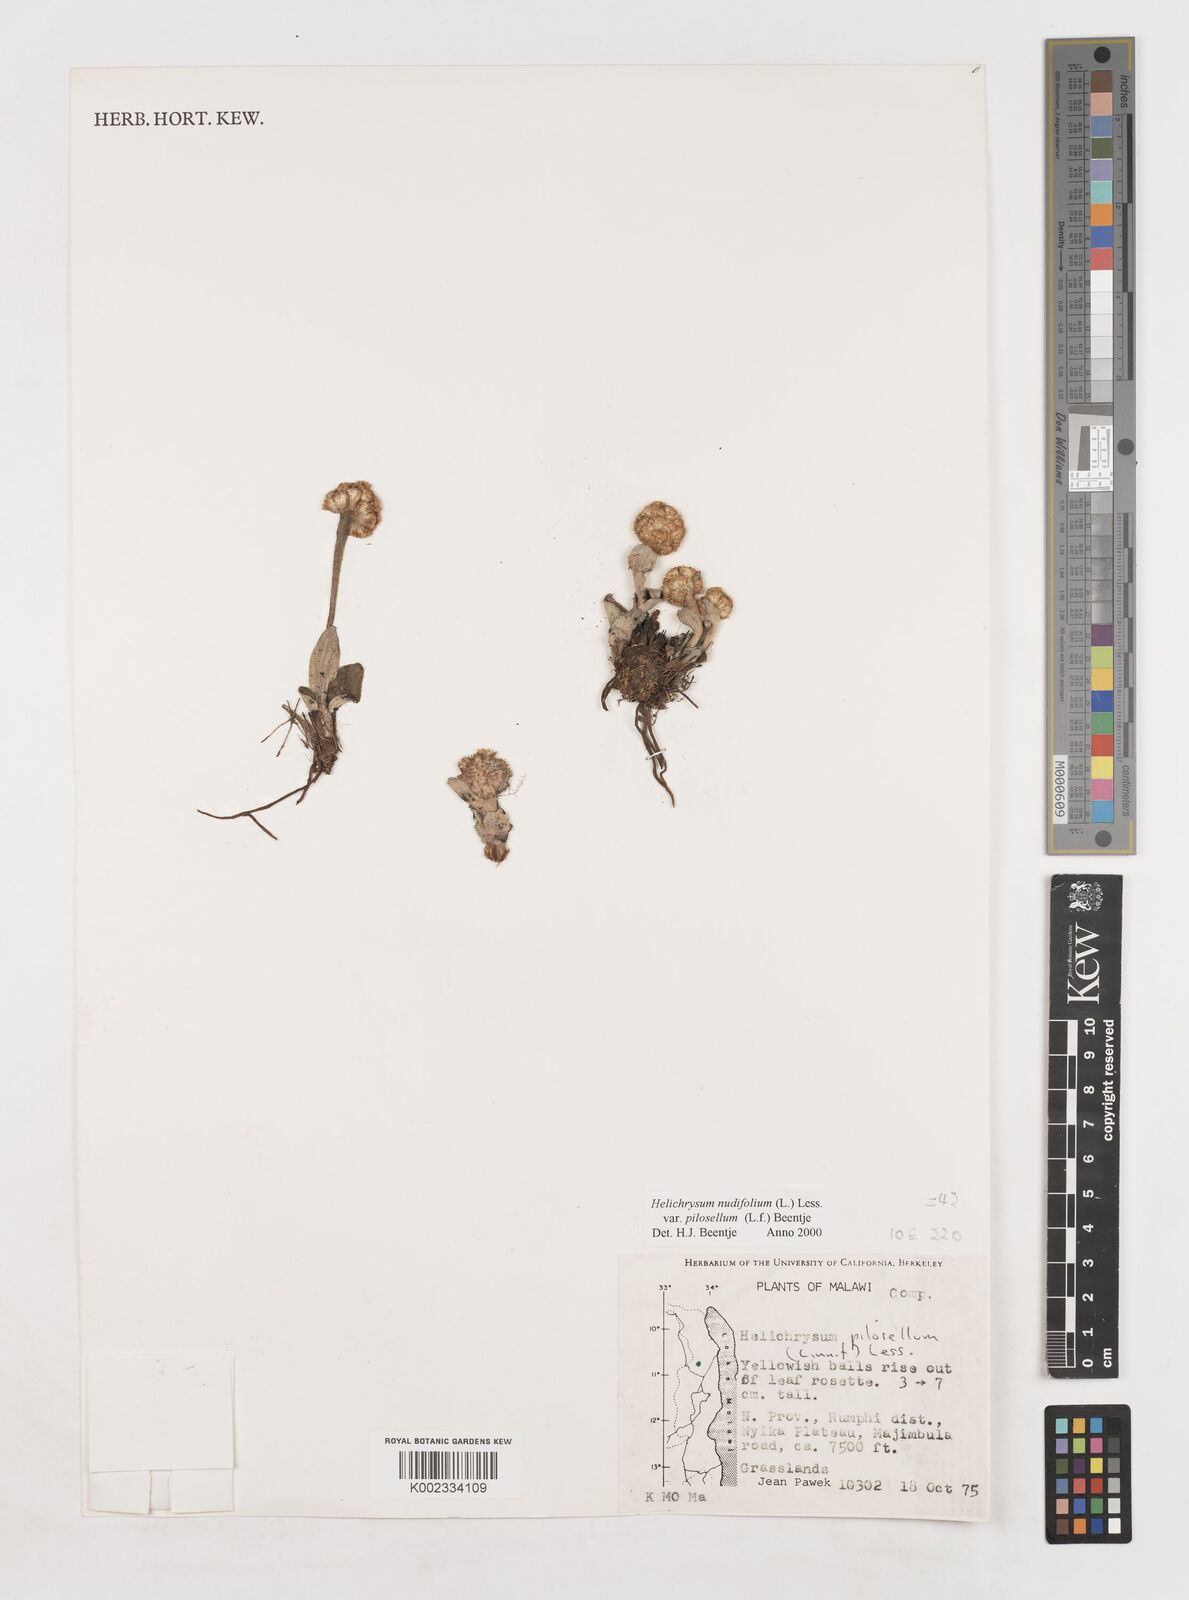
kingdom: Plantae
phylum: Tracheophyta
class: Magnoliopsida
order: Asterales
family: Asteraceae
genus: Helichrysum
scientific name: Helichrysum nudifolium
